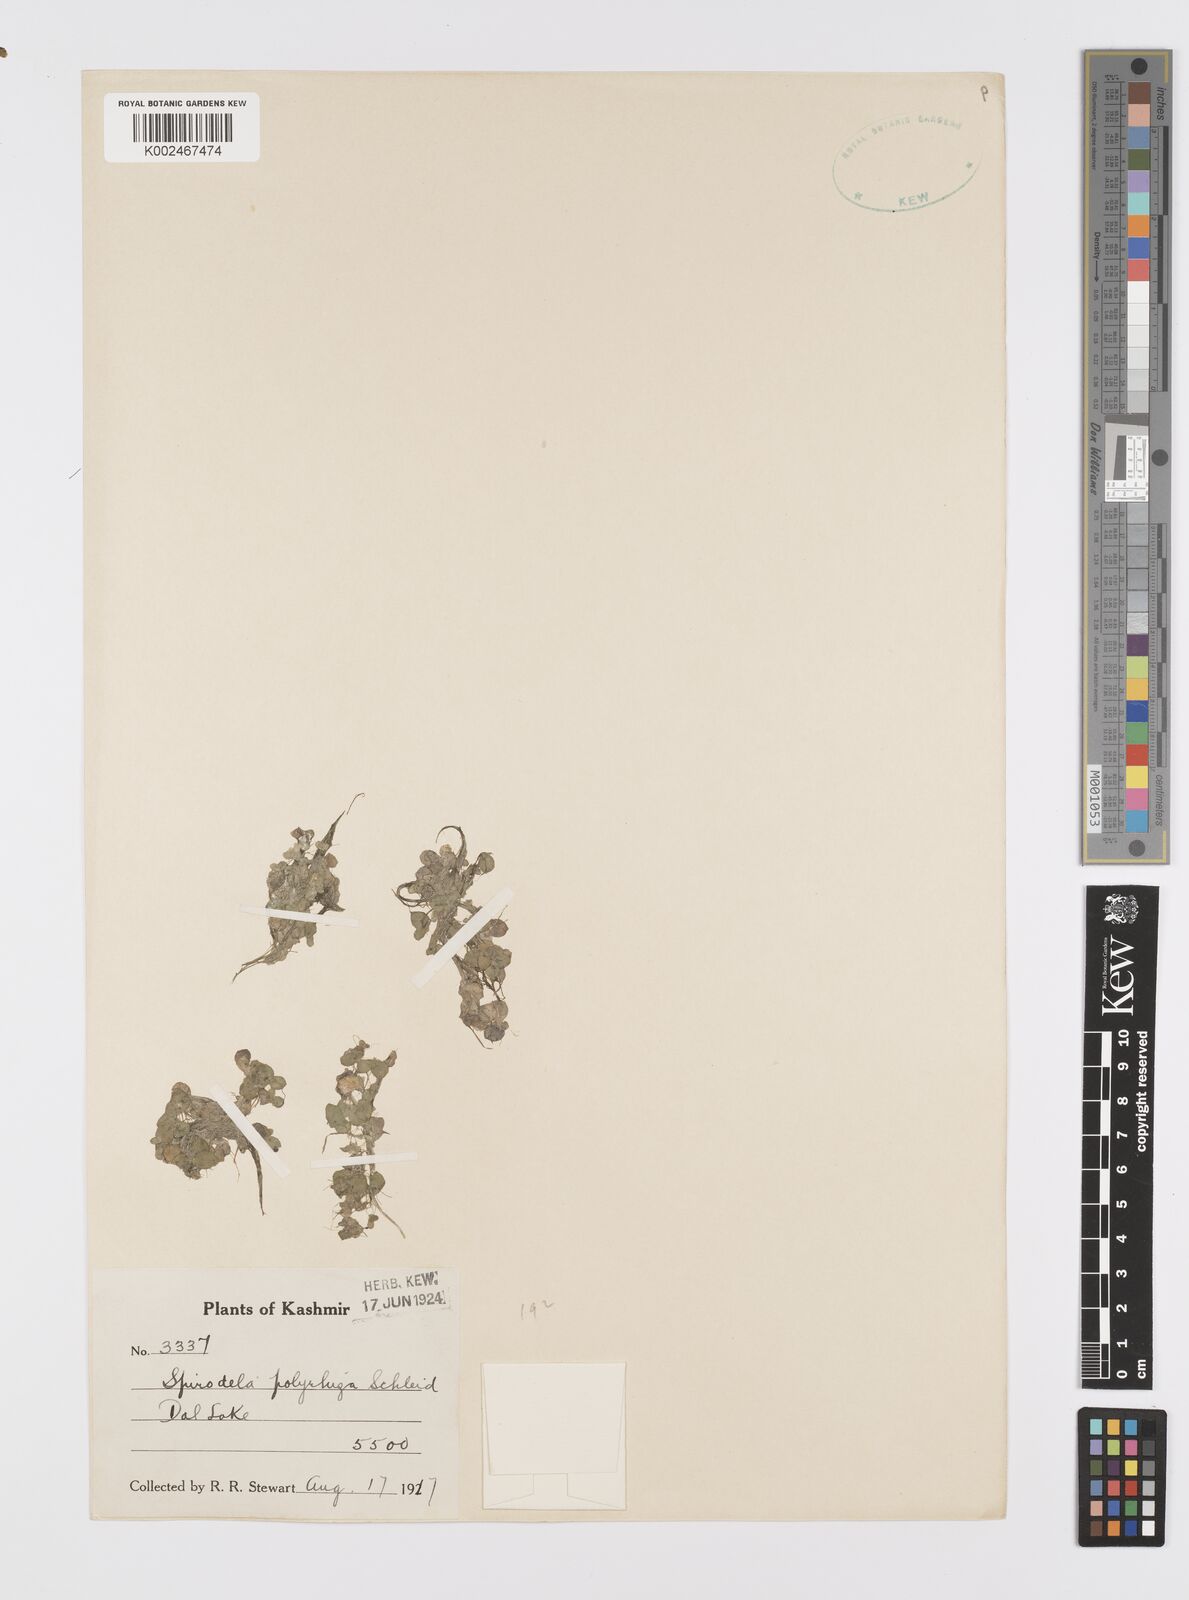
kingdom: Plantae
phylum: Tracheophyta
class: Liliopsida
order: Alismatales
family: Araceae
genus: Spirodela
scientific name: Spirodela polyrhiza
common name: Great duckweed
